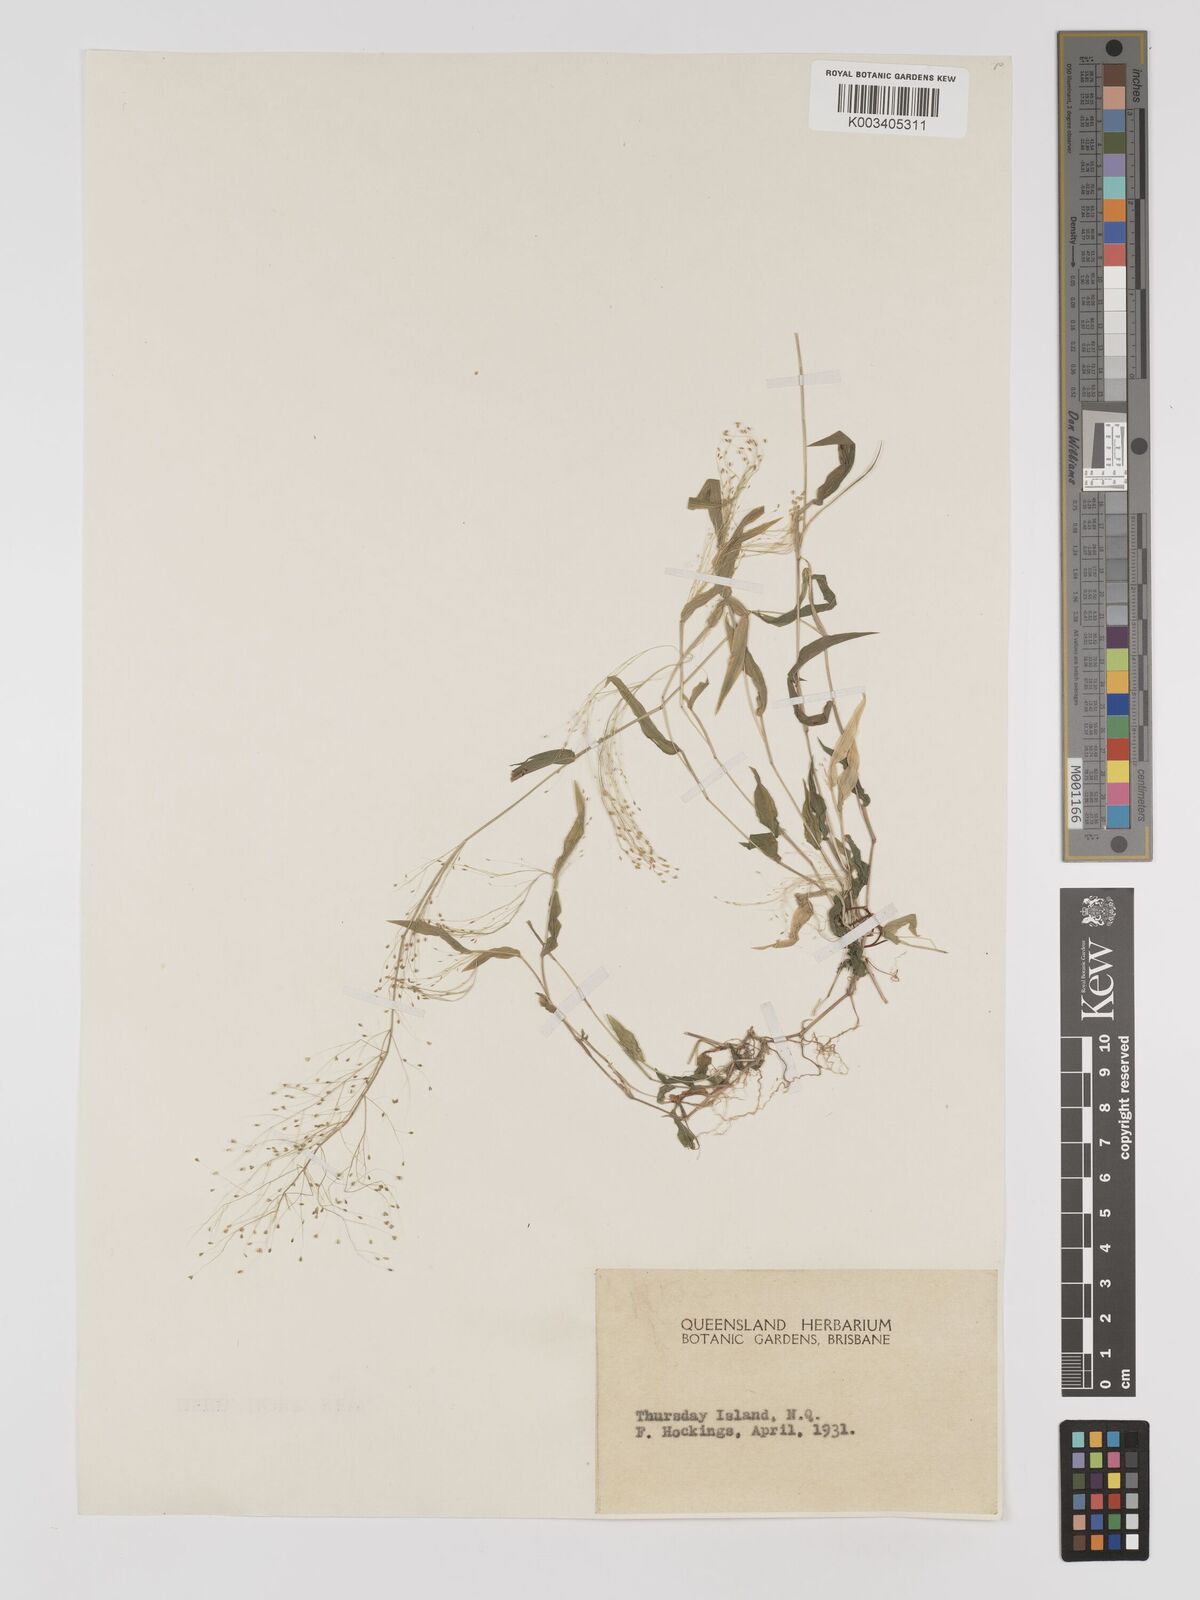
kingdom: Plantae
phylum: Tracheophyta
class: Liliopsida
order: Poales
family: Poaceae
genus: Panicum
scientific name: Panicum trichoides
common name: Tickle grass
